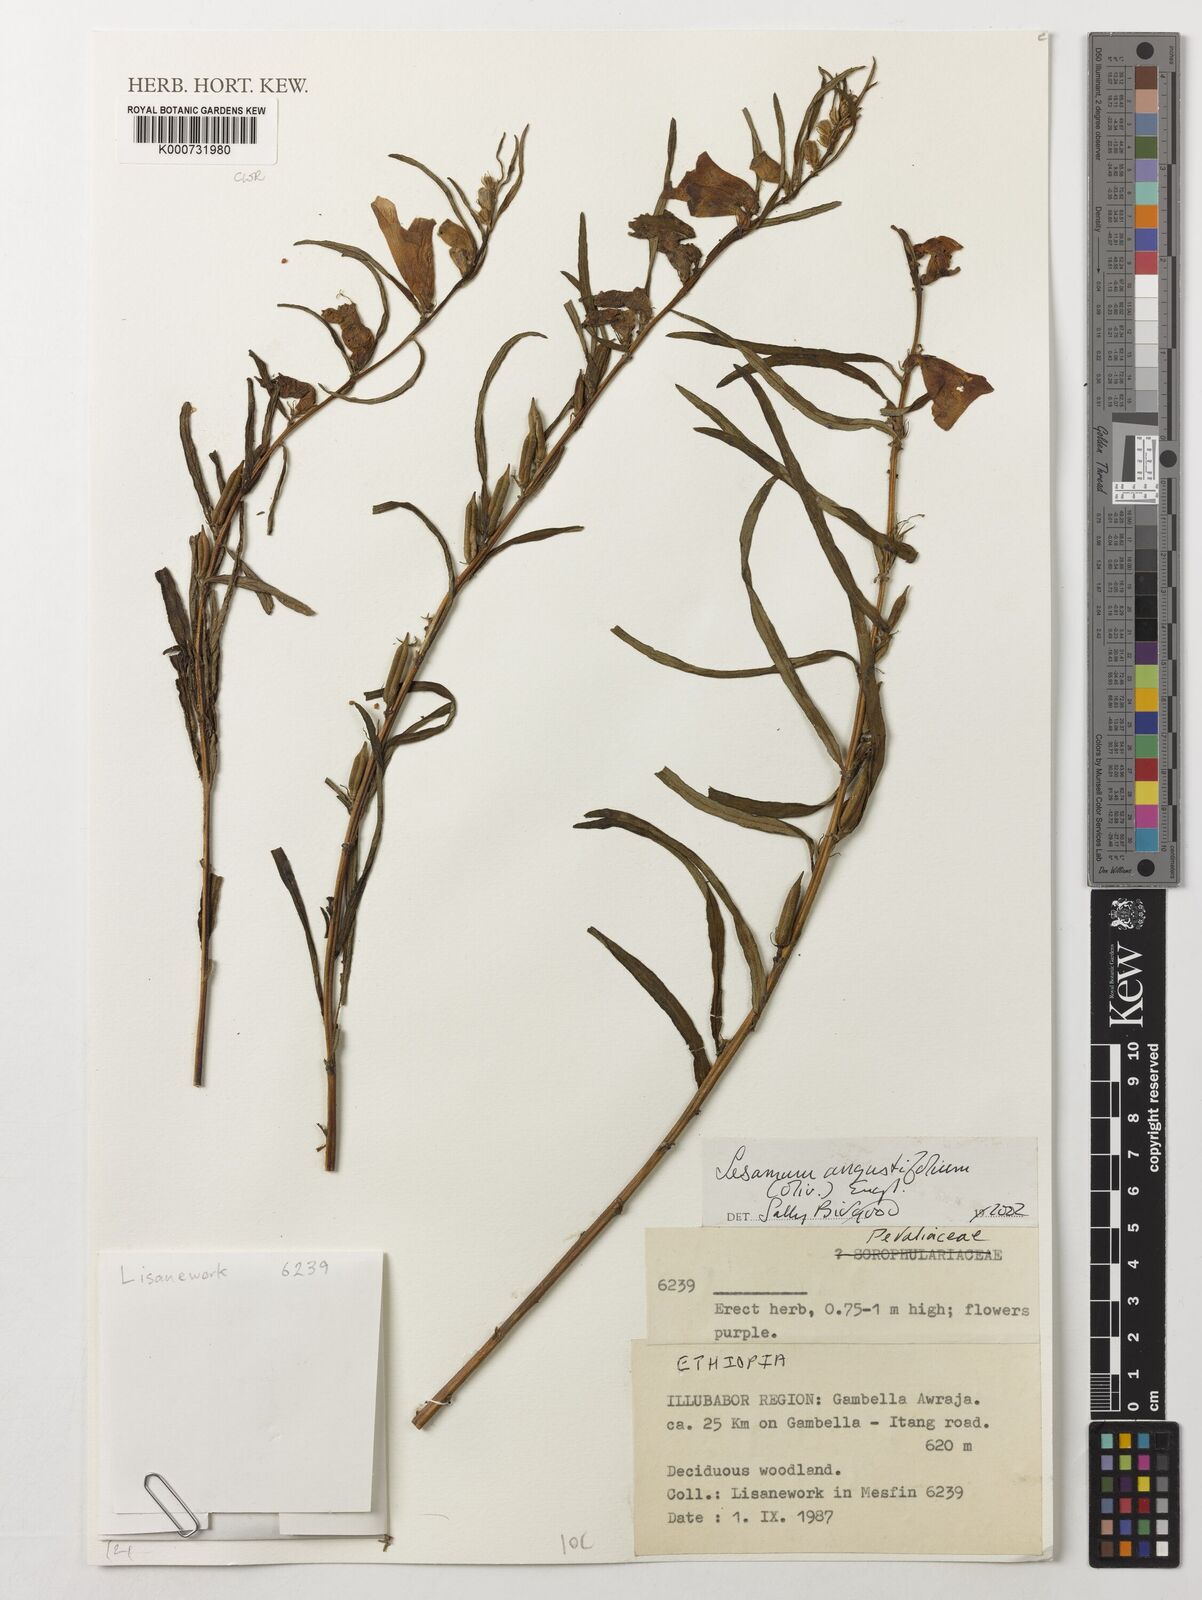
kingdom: Plantae
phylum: Tracheophyta
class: Magnoliopsida
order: Lamiales
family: Pedaliaceae
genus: Sesamum
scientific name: Sesamum angustifolium
